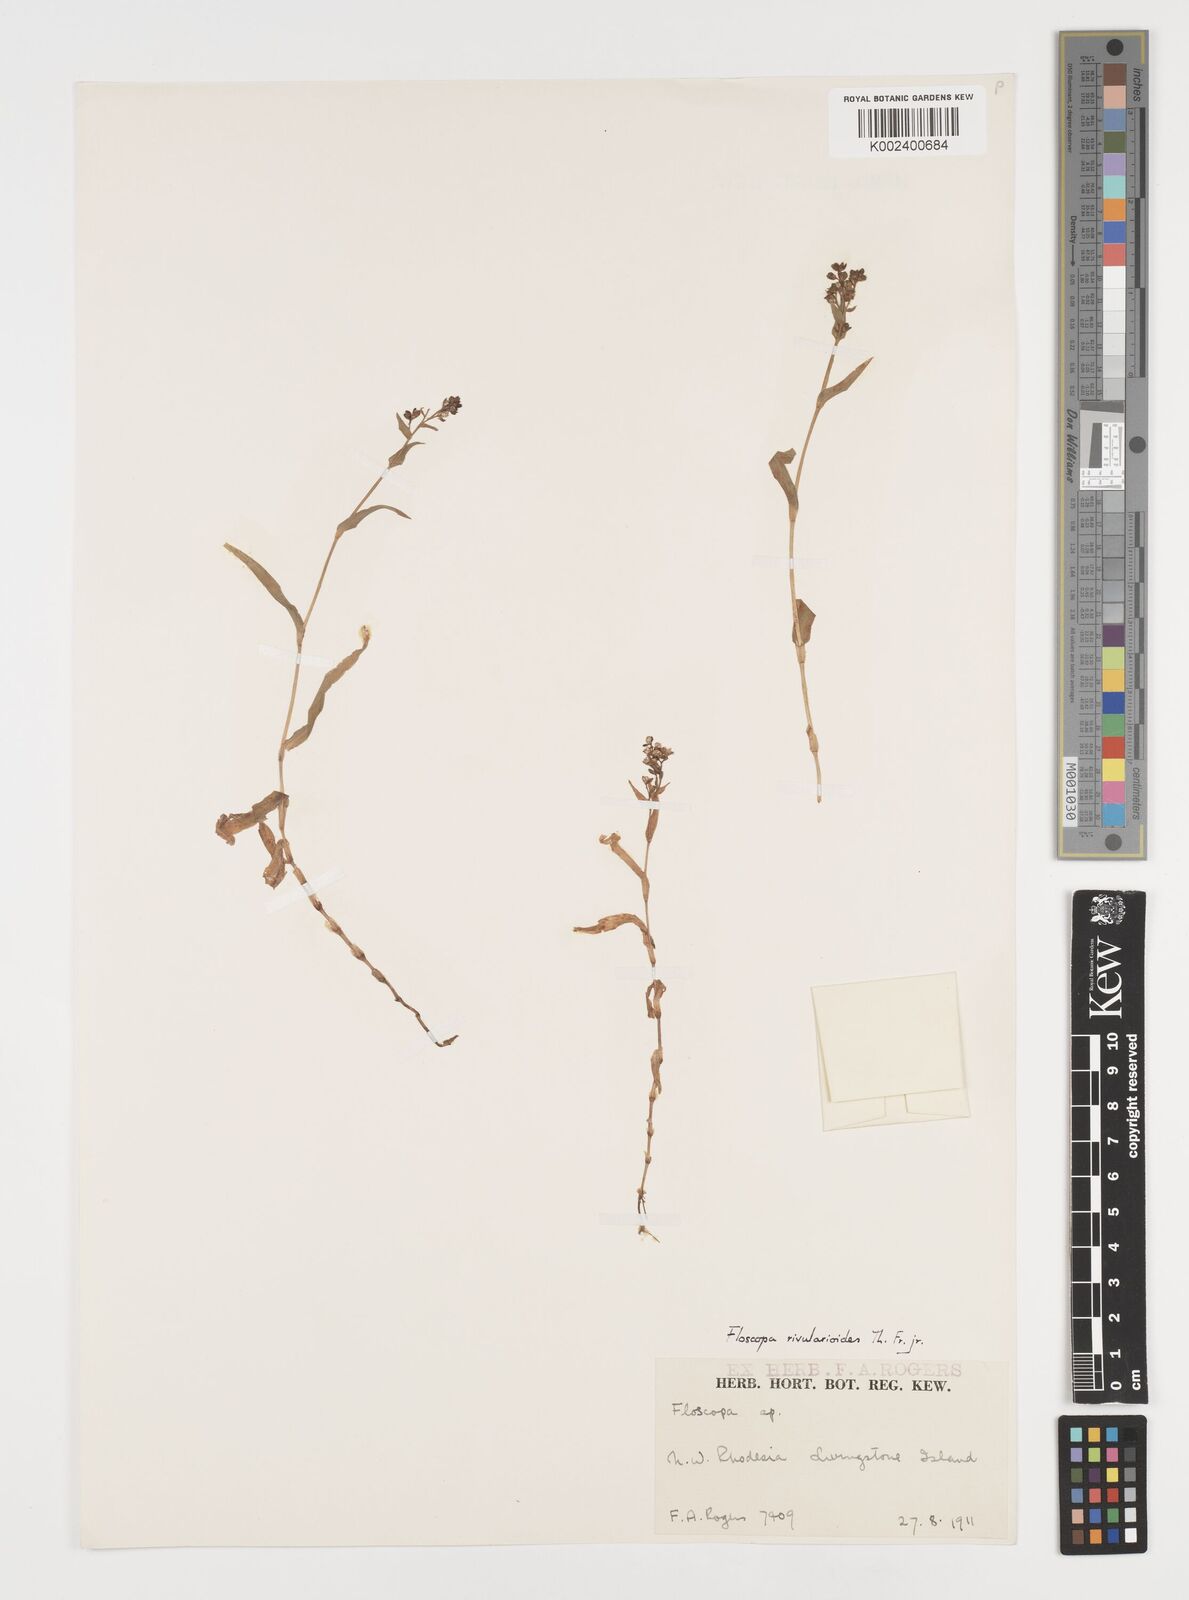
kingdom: Plantae
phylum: Tracheophyta
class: Liliopsida
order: Commelinales
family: Commelinaceae
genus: Floscopa
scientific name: Floscopa rivularioides
